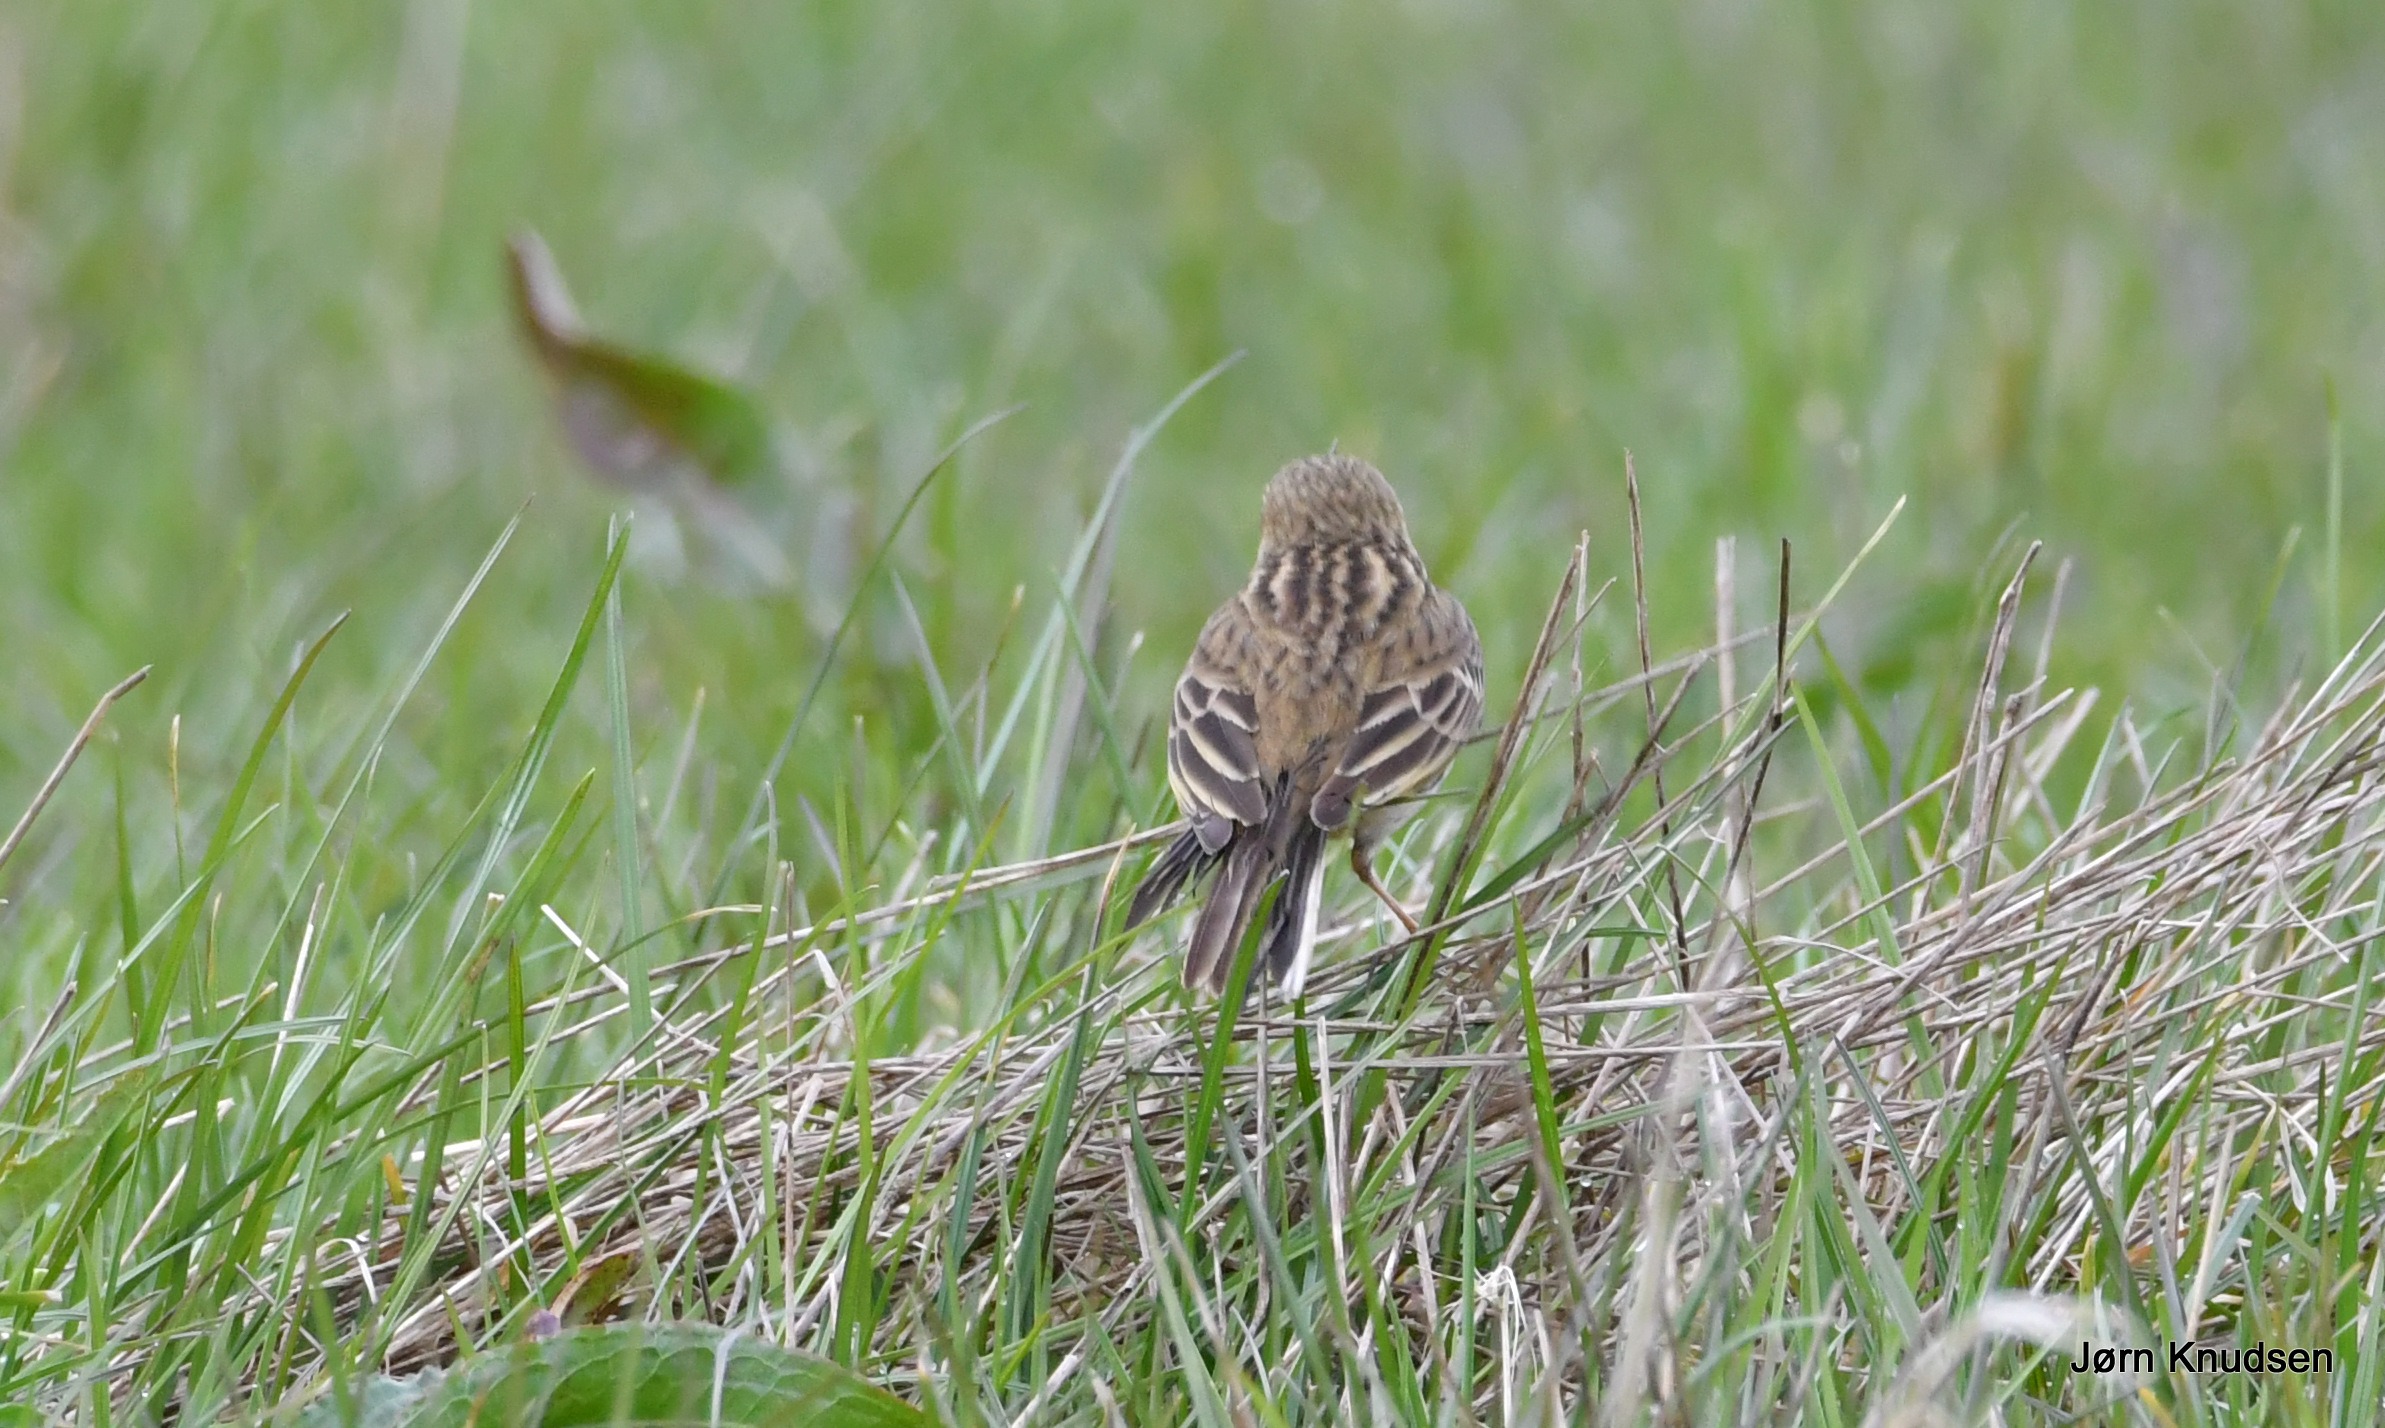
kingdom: Animalia
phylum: Chordata
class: Aves
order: Passeriformes
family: Alaudidae
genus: Alauda
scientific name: Alauda arvensis
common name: Sanglærke
